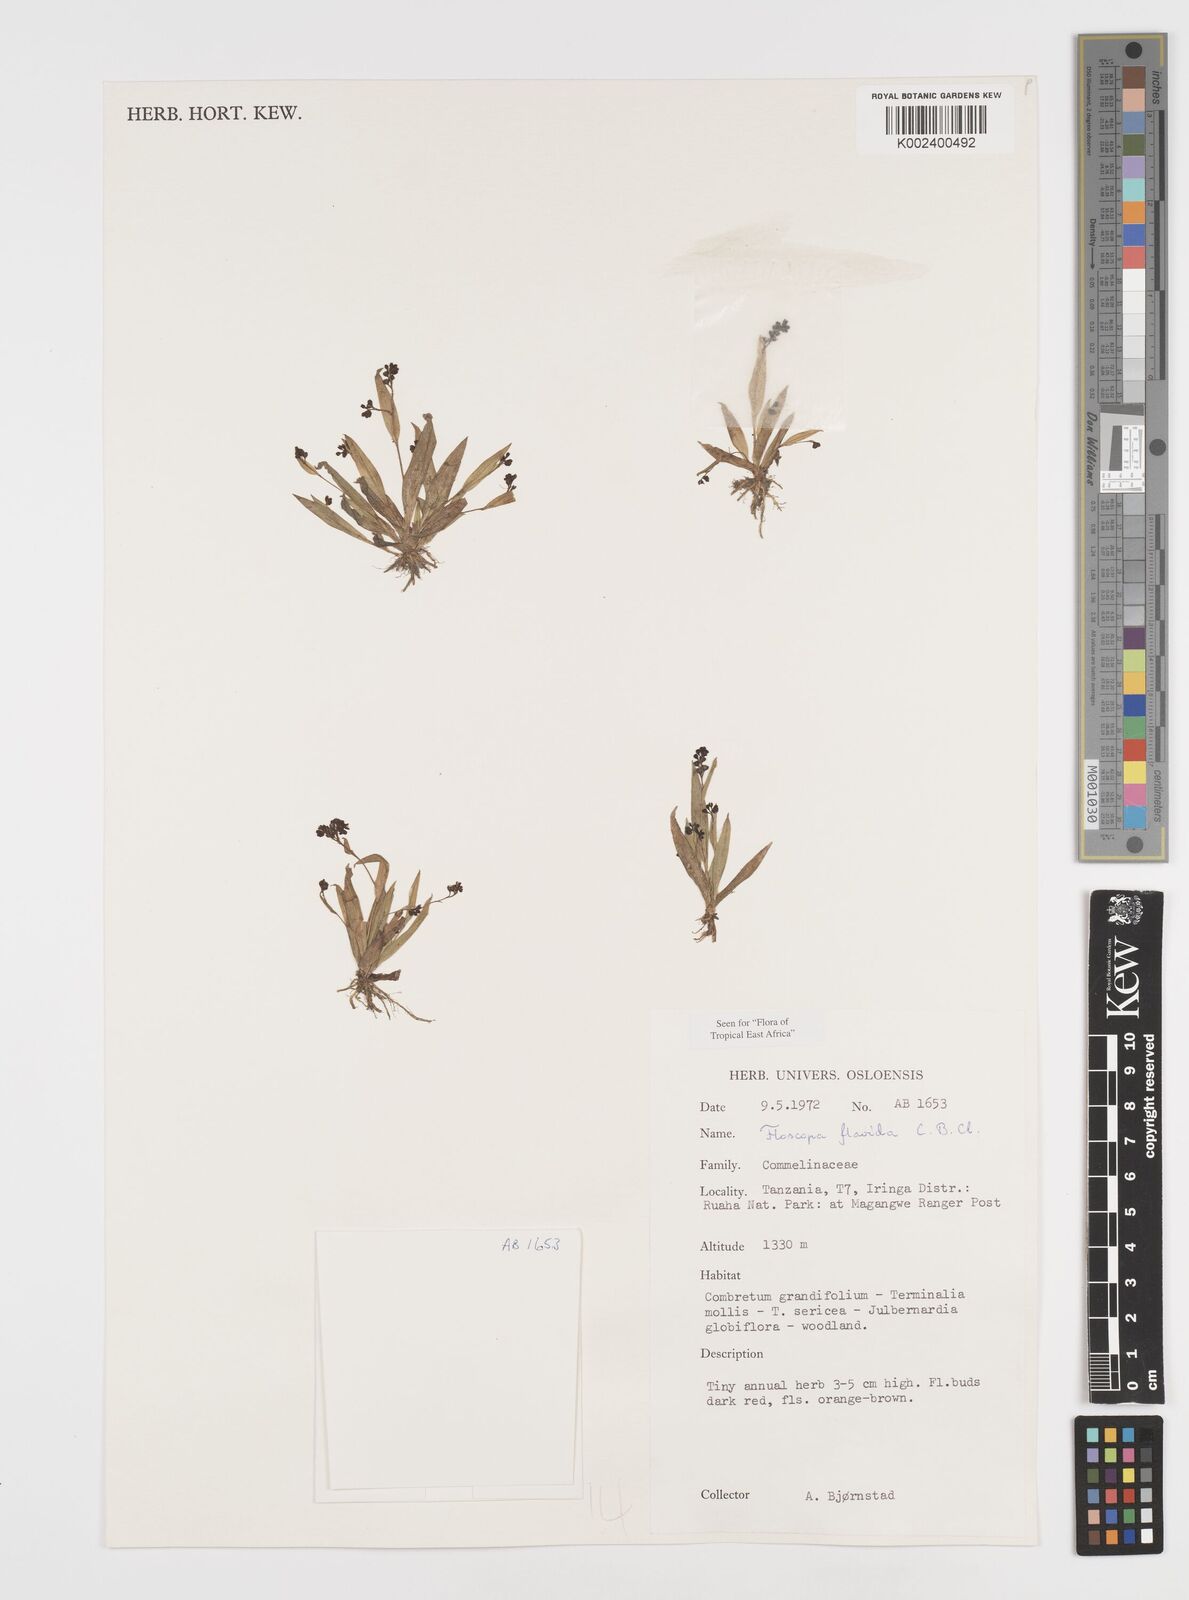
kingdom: Plantae
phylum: Tracheophyta
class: Liliopsida
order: Commelinales
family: Commelinaceae
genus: Floscopa
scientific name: Floscopa flavida
